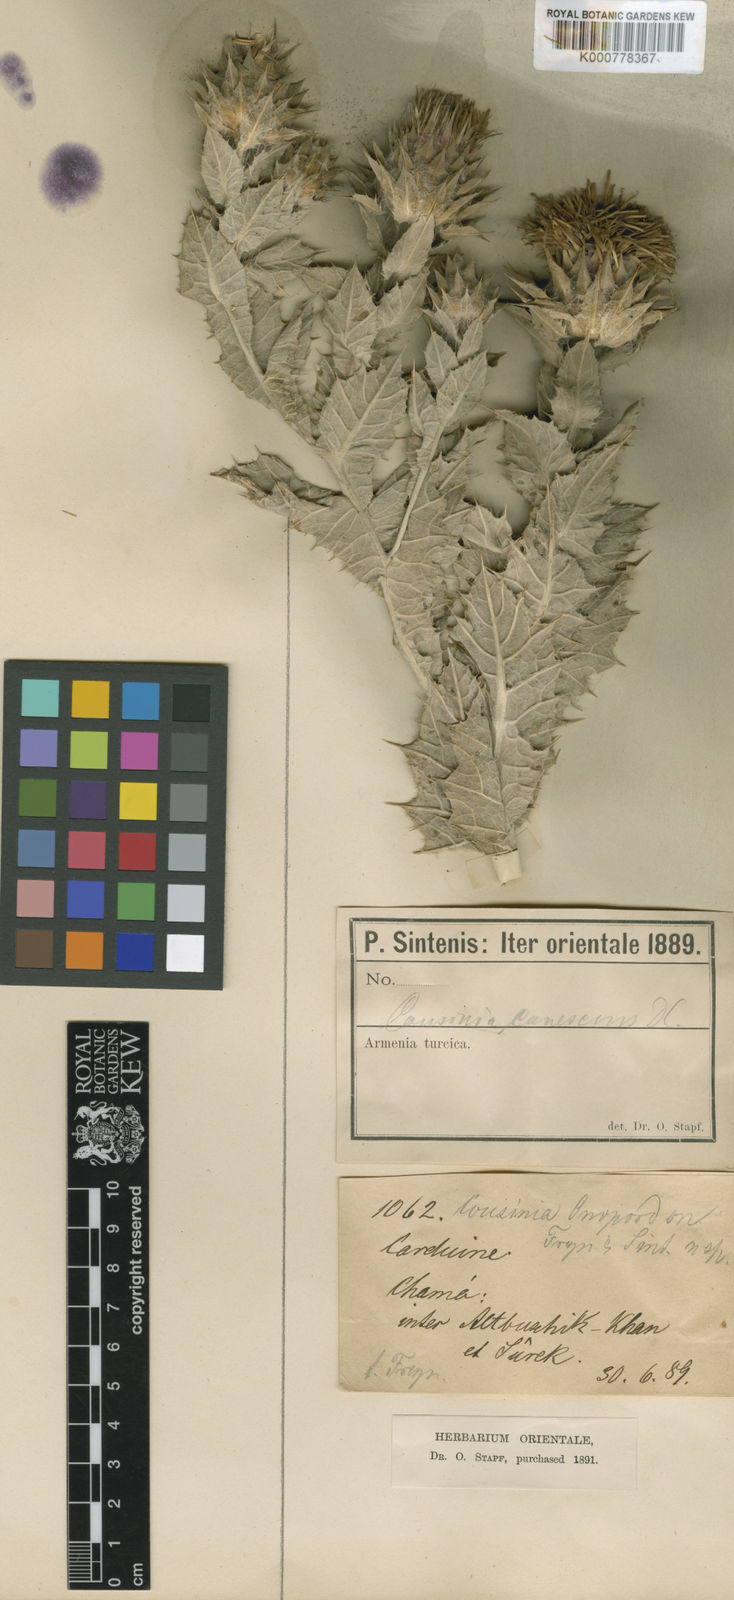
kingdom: Plantae
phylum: Tracheophyta
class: Magnoliopsida
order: Asterales
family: Asteraceae
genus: Cousinia
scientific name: Cousinia onopordon
